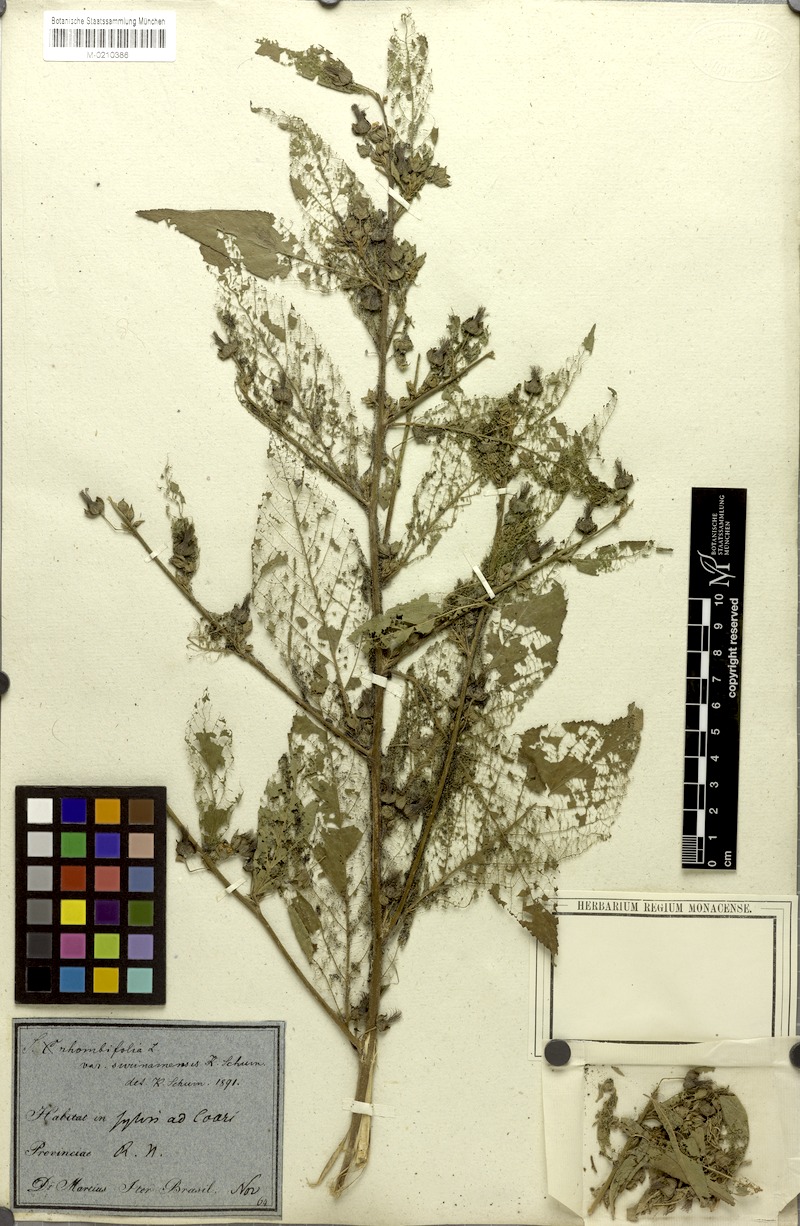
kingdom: Plantae
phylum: Tracheophyta
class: Magnoliopsida
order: Malvales
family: Malvaceae
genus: Sida
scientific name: Sida setosa
